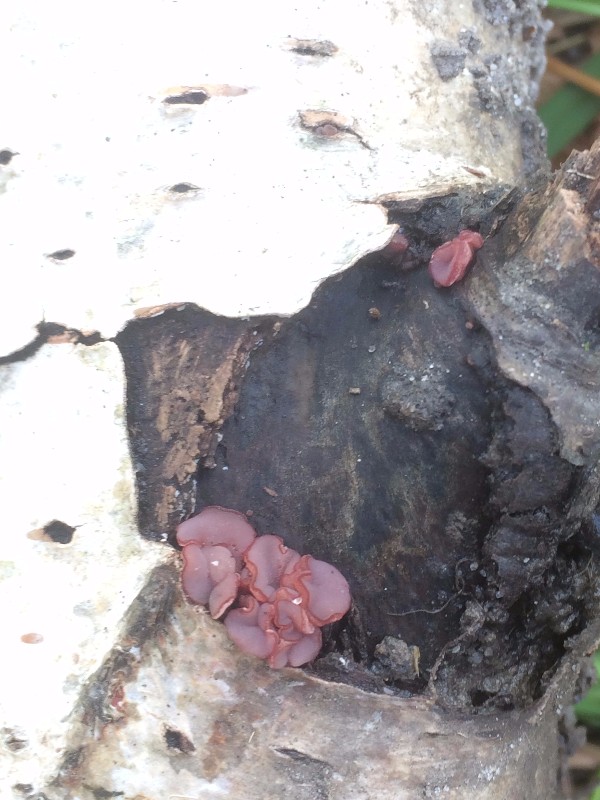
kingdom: Fungi
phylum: Ascomycota
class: Leotiomycetes
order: Helotiales
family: Gelatinodiscaceae
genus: Ascocoryne
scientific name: Ascocoryne cylichnium
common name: stor sejskive
